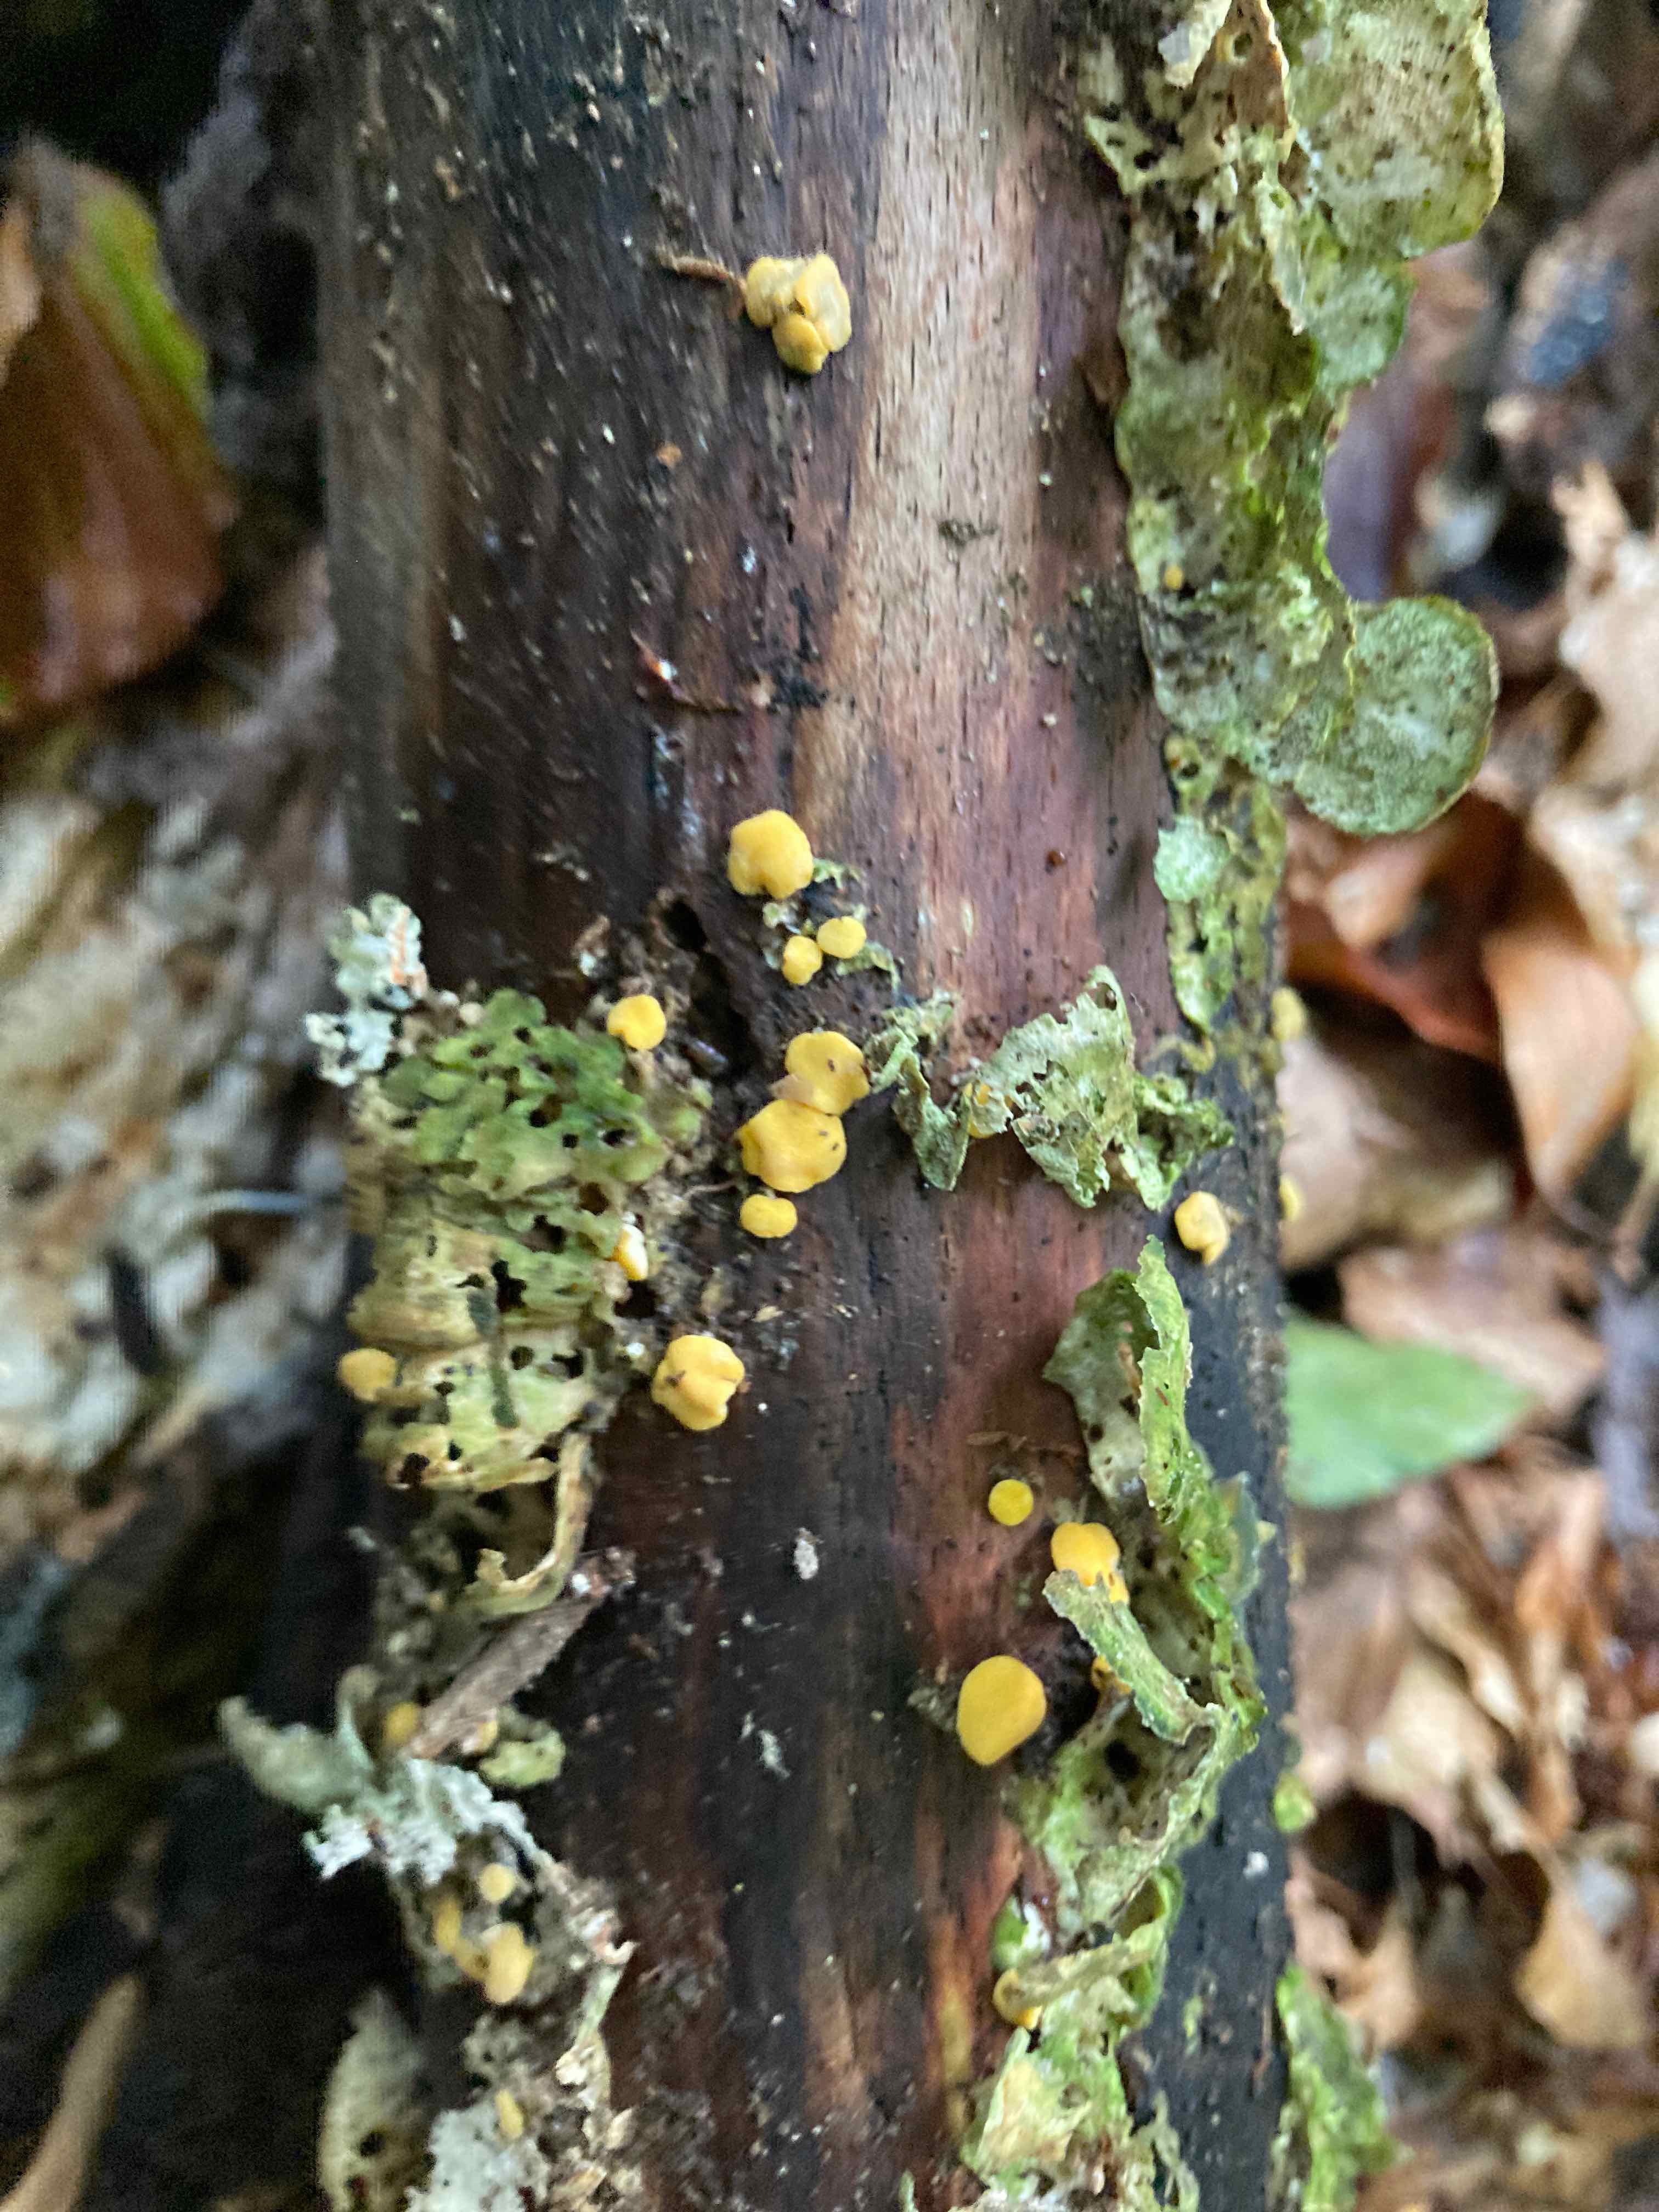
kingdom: Fungi
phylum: Ascomycota
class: Sordariomycetes
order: Hypocreales
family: Hypocreaceae
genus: Trichoderma
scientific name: Trichoderma aureoviride
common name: æggegul kødkerne
